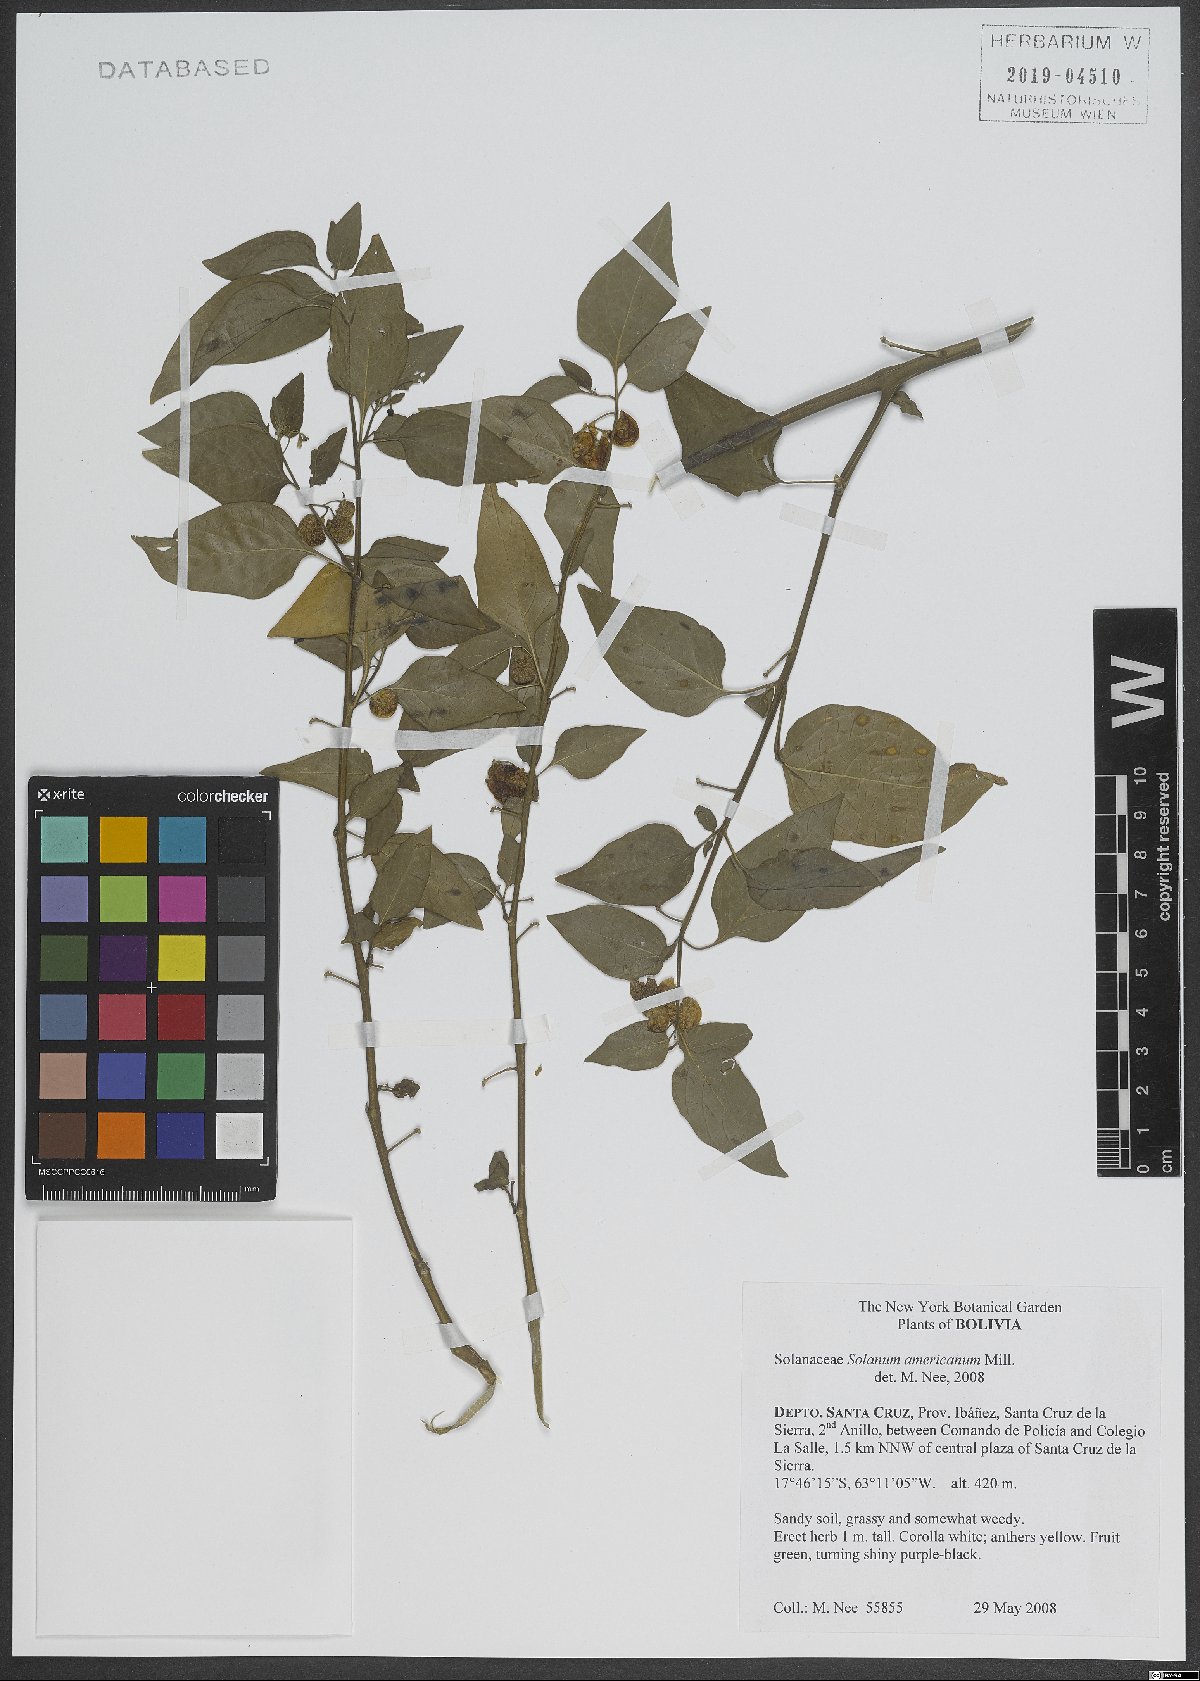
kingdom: Plantae
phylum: Tracheophyta
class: Magnoliopsida
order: Solanales
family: Solanaceae
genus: Solanum
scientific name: Solanum americanum
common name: American black nightshade
